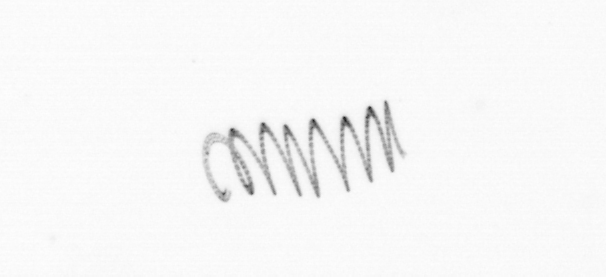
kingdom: Chromista
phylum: Ochrophyta
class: Bacillariophyceae
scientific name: Bacillariophyceae
